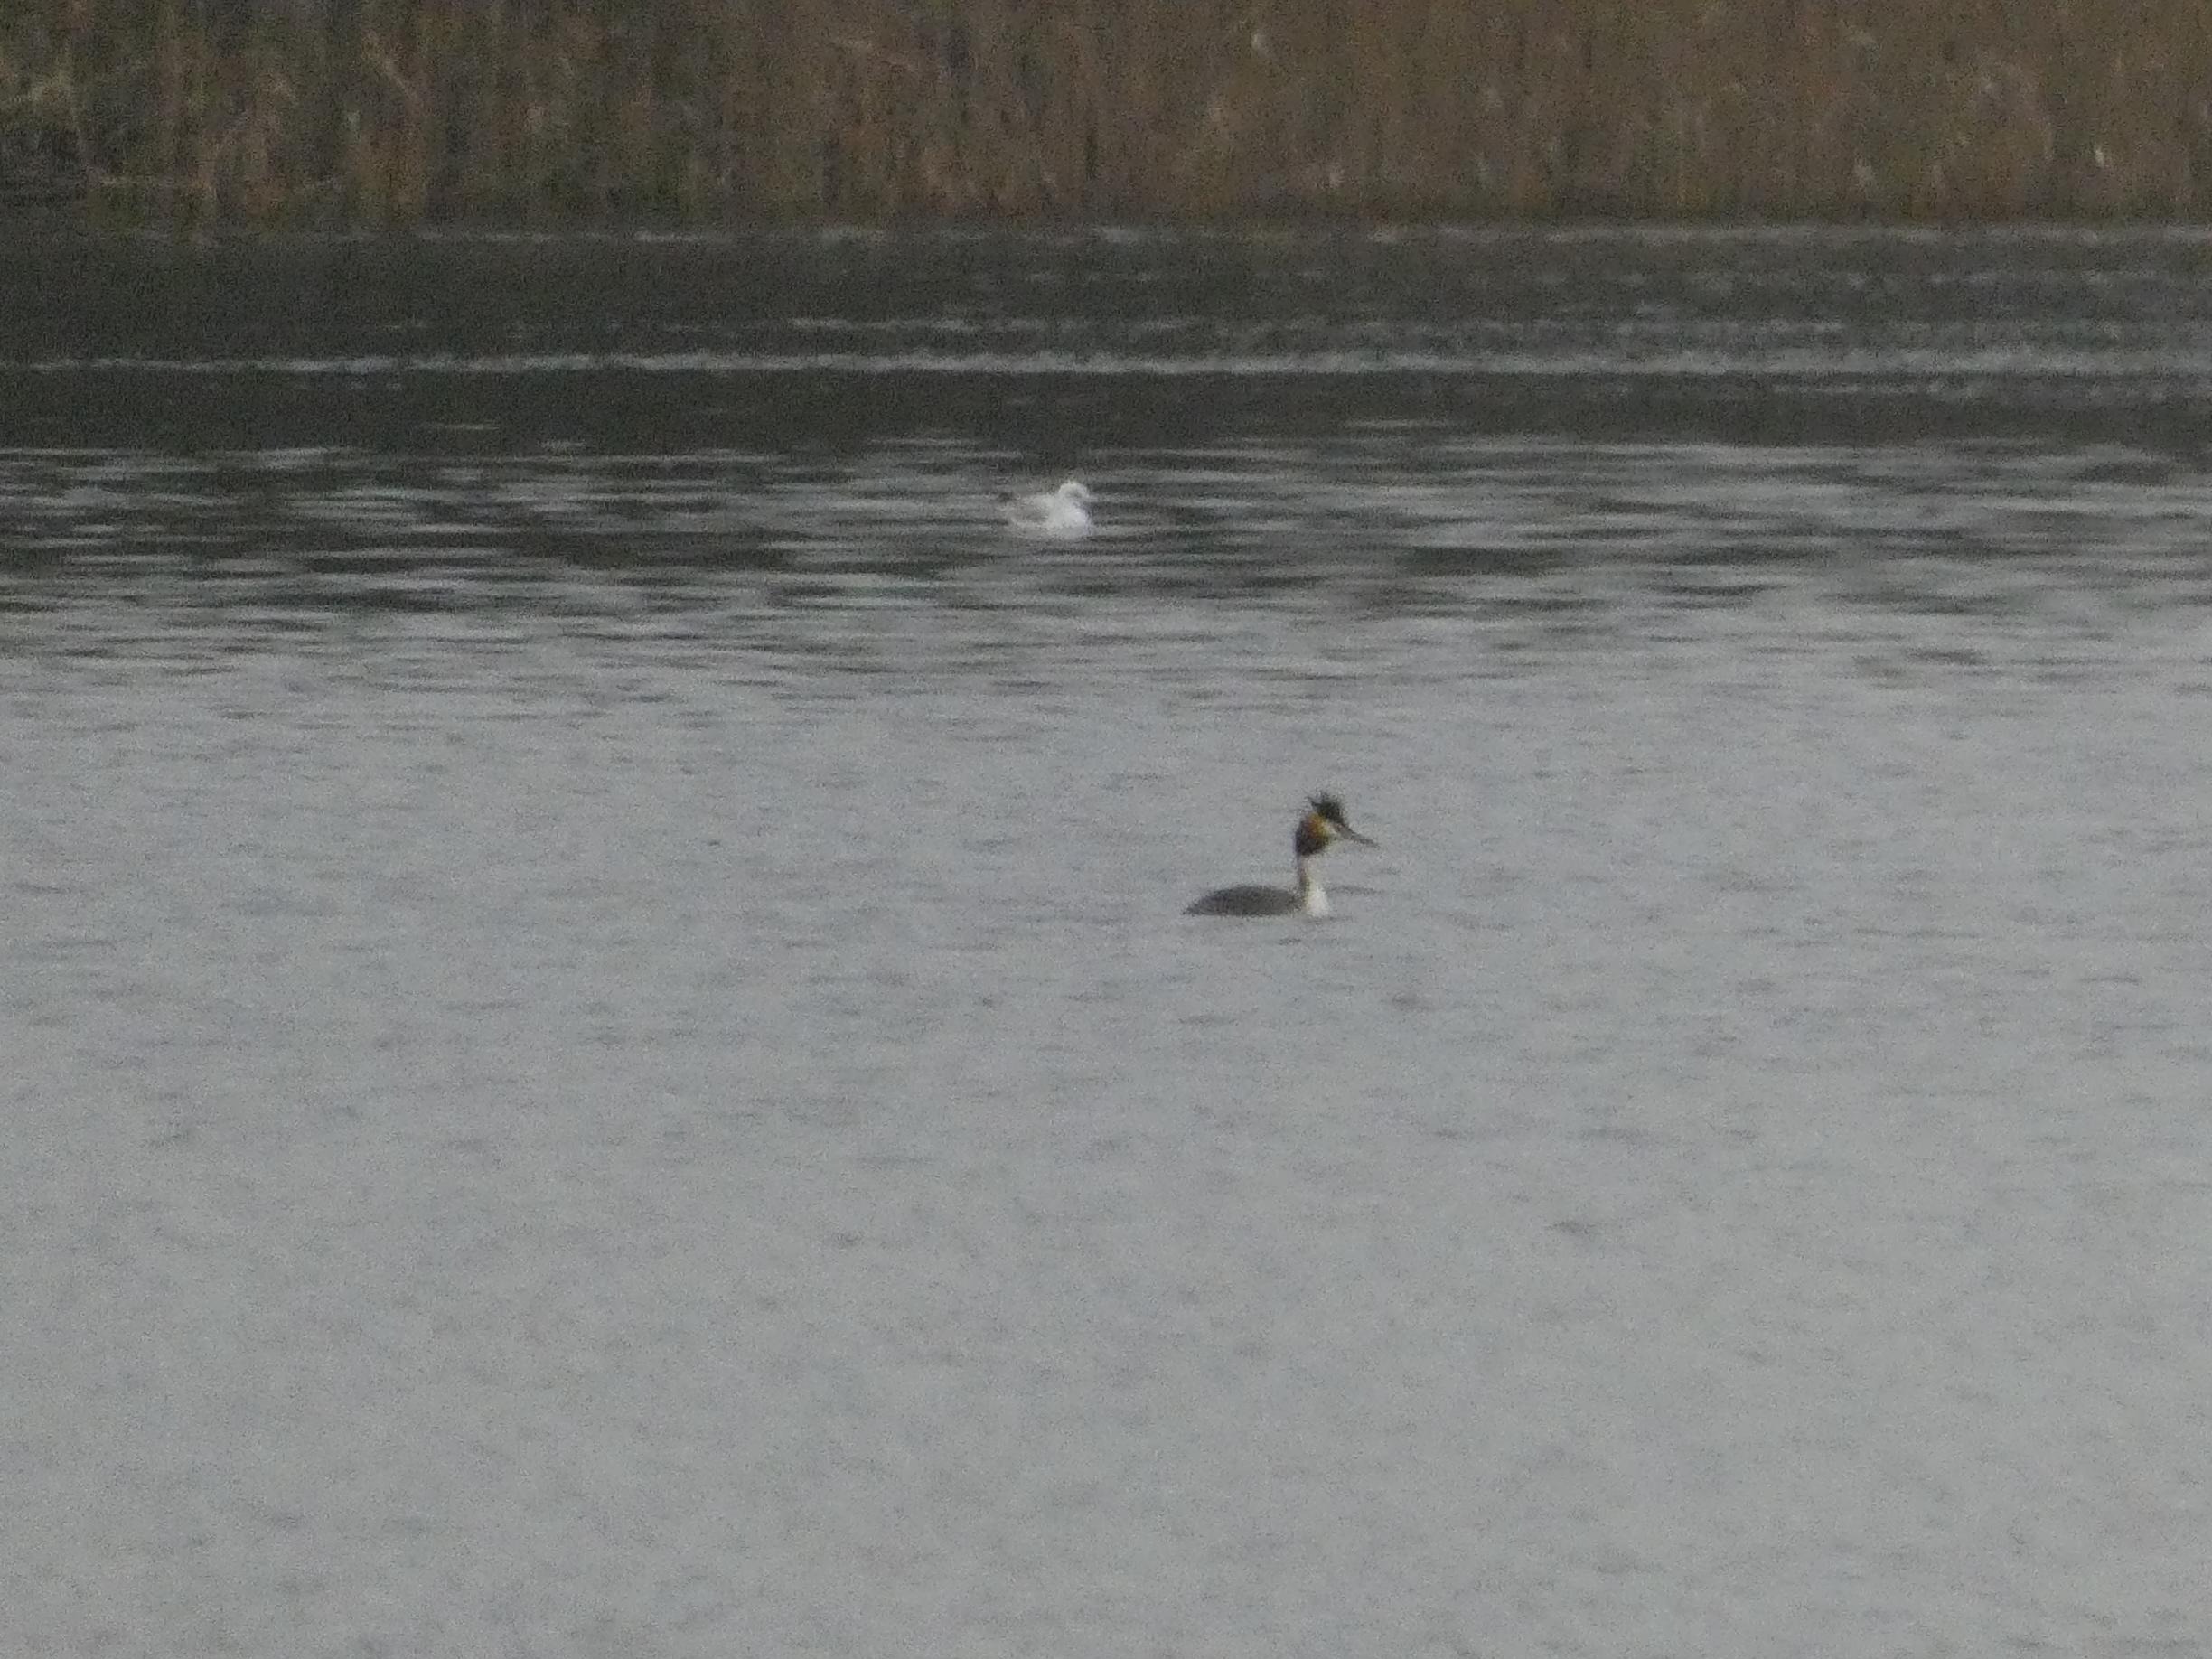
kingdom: Animalia
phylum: Chordata
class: Aves
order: Podicipediformes
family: Podicipedidae
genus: Podiceps
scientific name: Podiceps cristatus
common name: Toppet lappedykker
